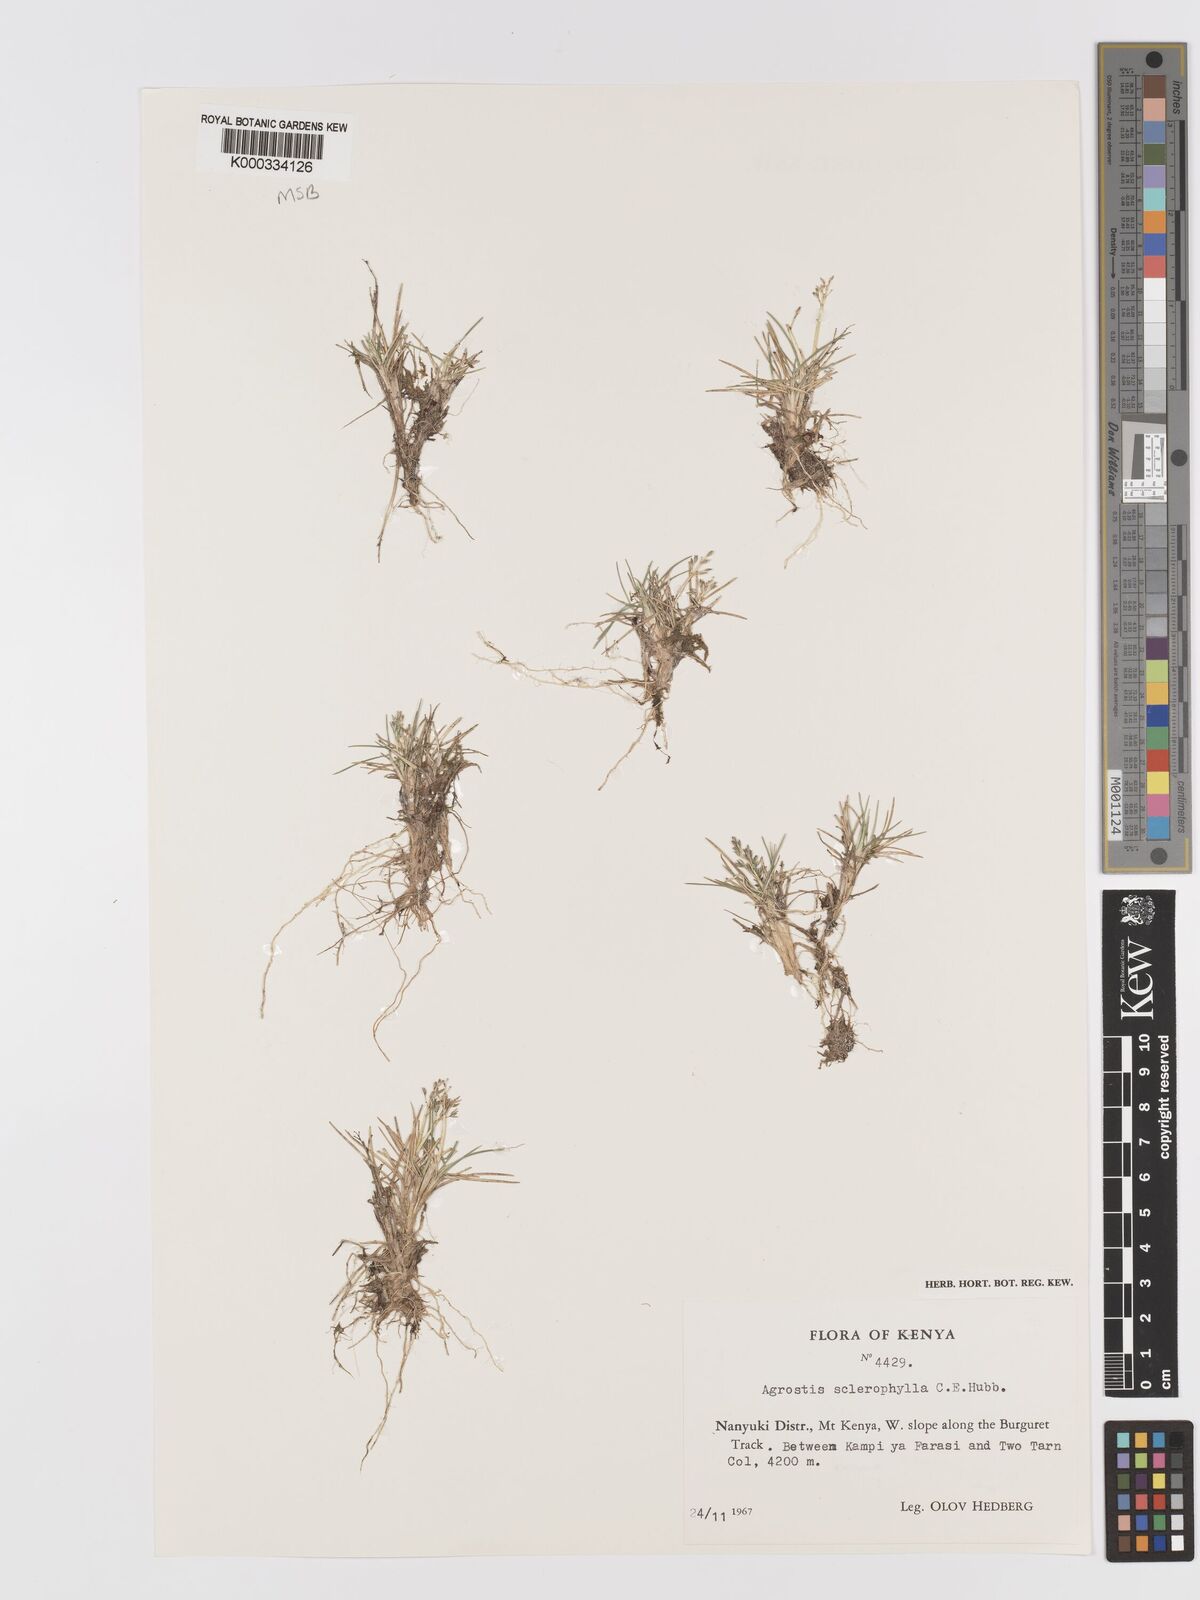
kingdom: Plantae
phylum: Tracheophyta
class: Liliopsida
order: Poales
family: Poaceae
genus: Agrostis
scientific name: Agrostis sclerophylla
